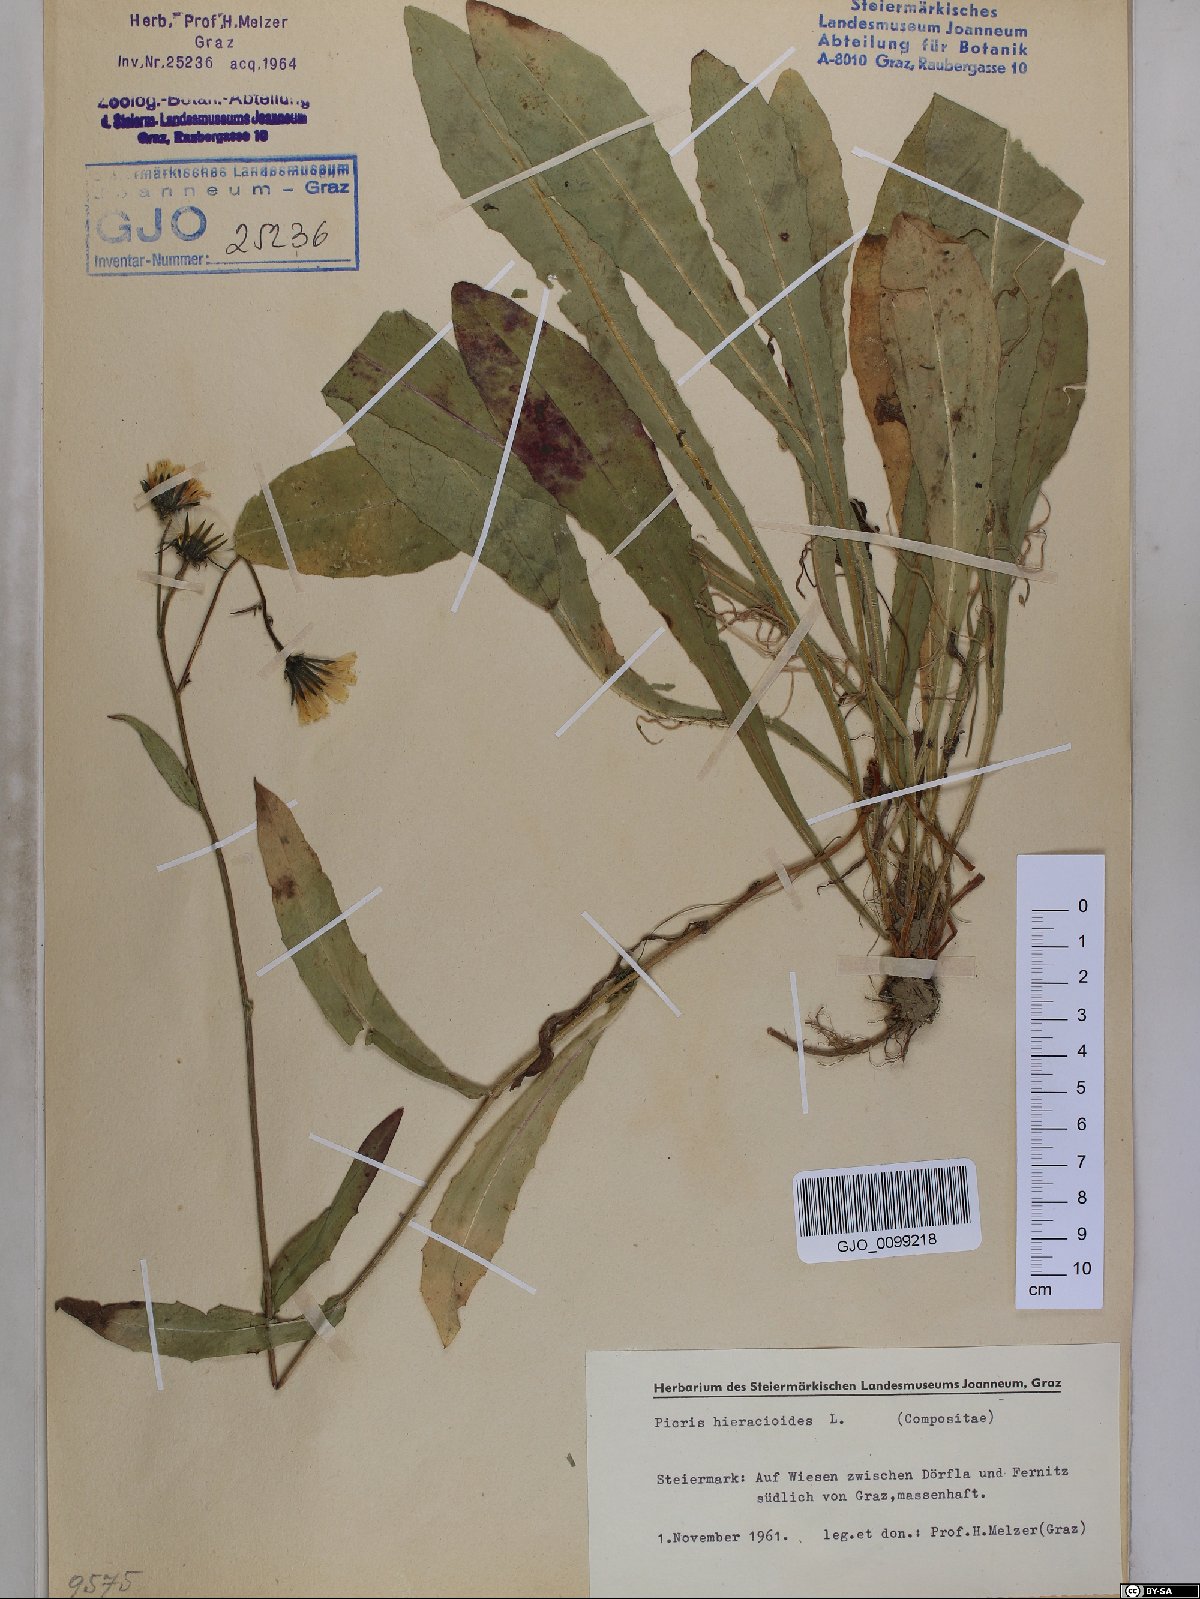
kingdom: Plantae
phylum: Tracheophyta
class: Magnoliopsida
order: Asterales
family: Asteraceae
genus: Picris
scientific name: Picris hieracioides
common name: Hawkweed oxtongue
